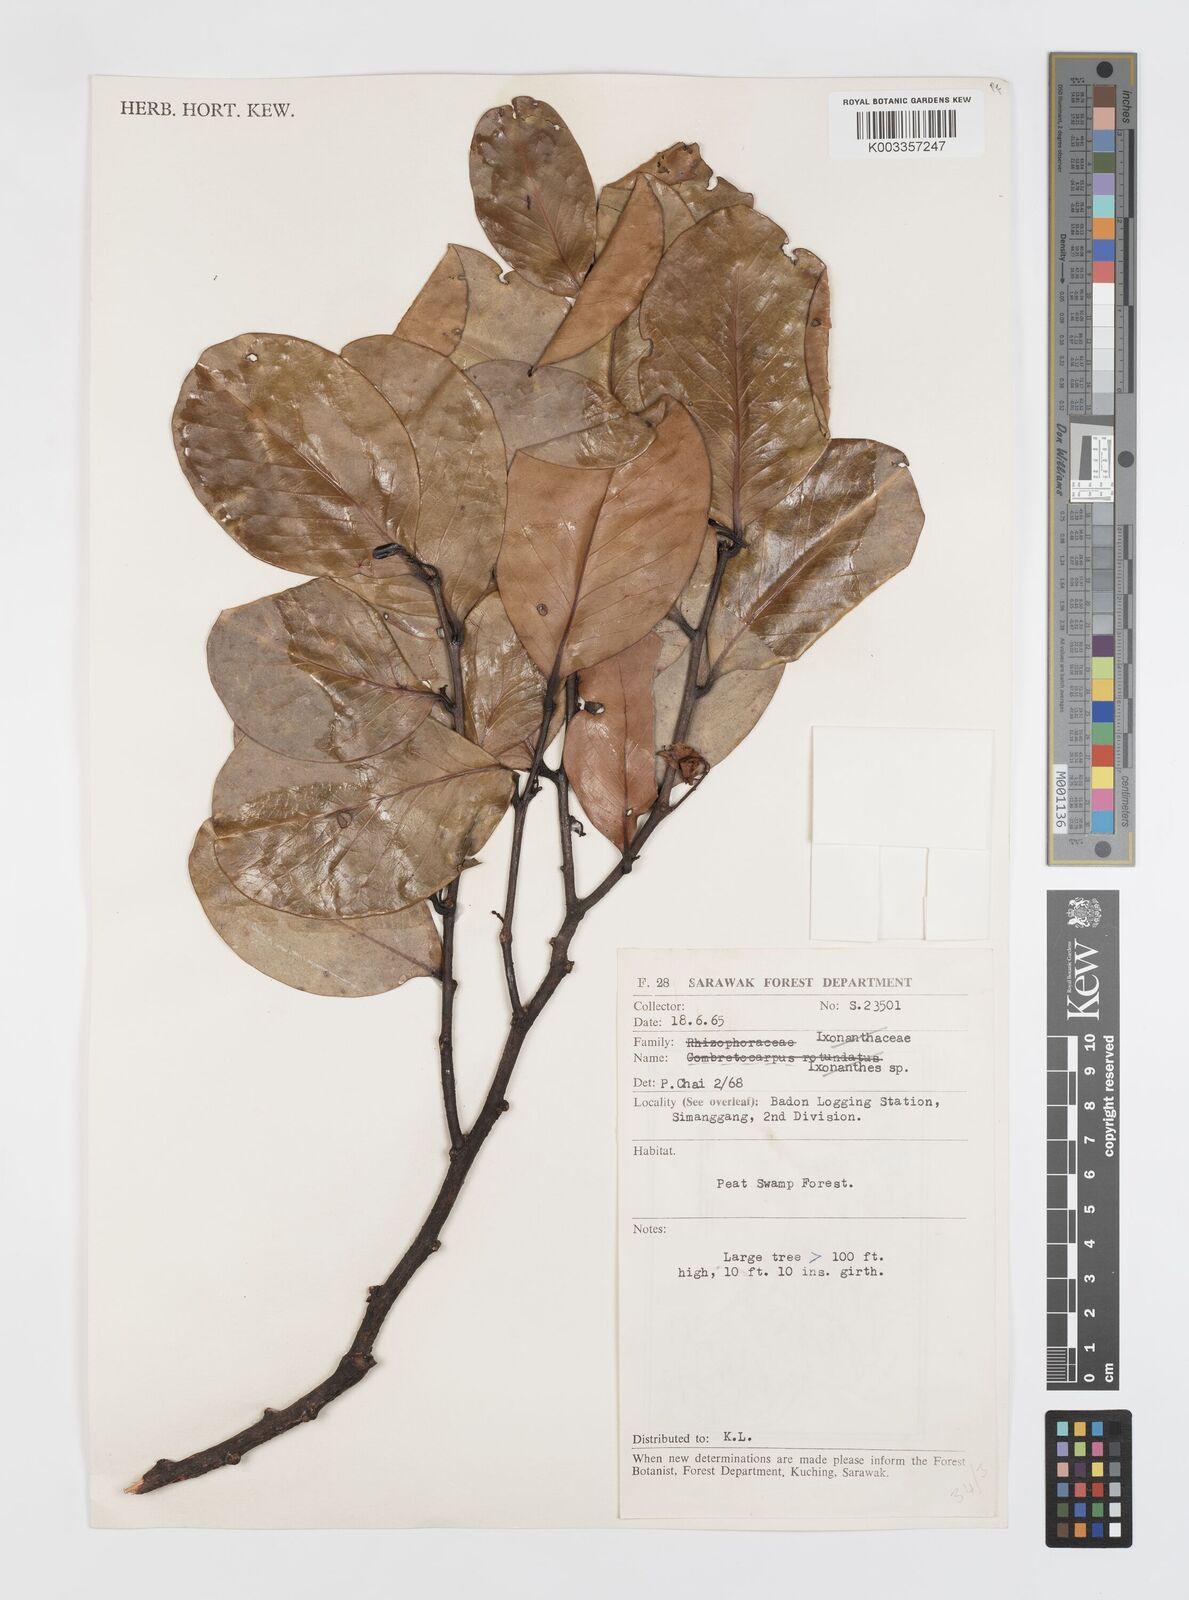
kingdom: Plantae
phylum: Tracheophyta
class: Magnoliopsida
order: Cucurbitales
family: Anisophylleaceae
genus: Combretocarpus
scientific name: Combretocarpus rotundatus
